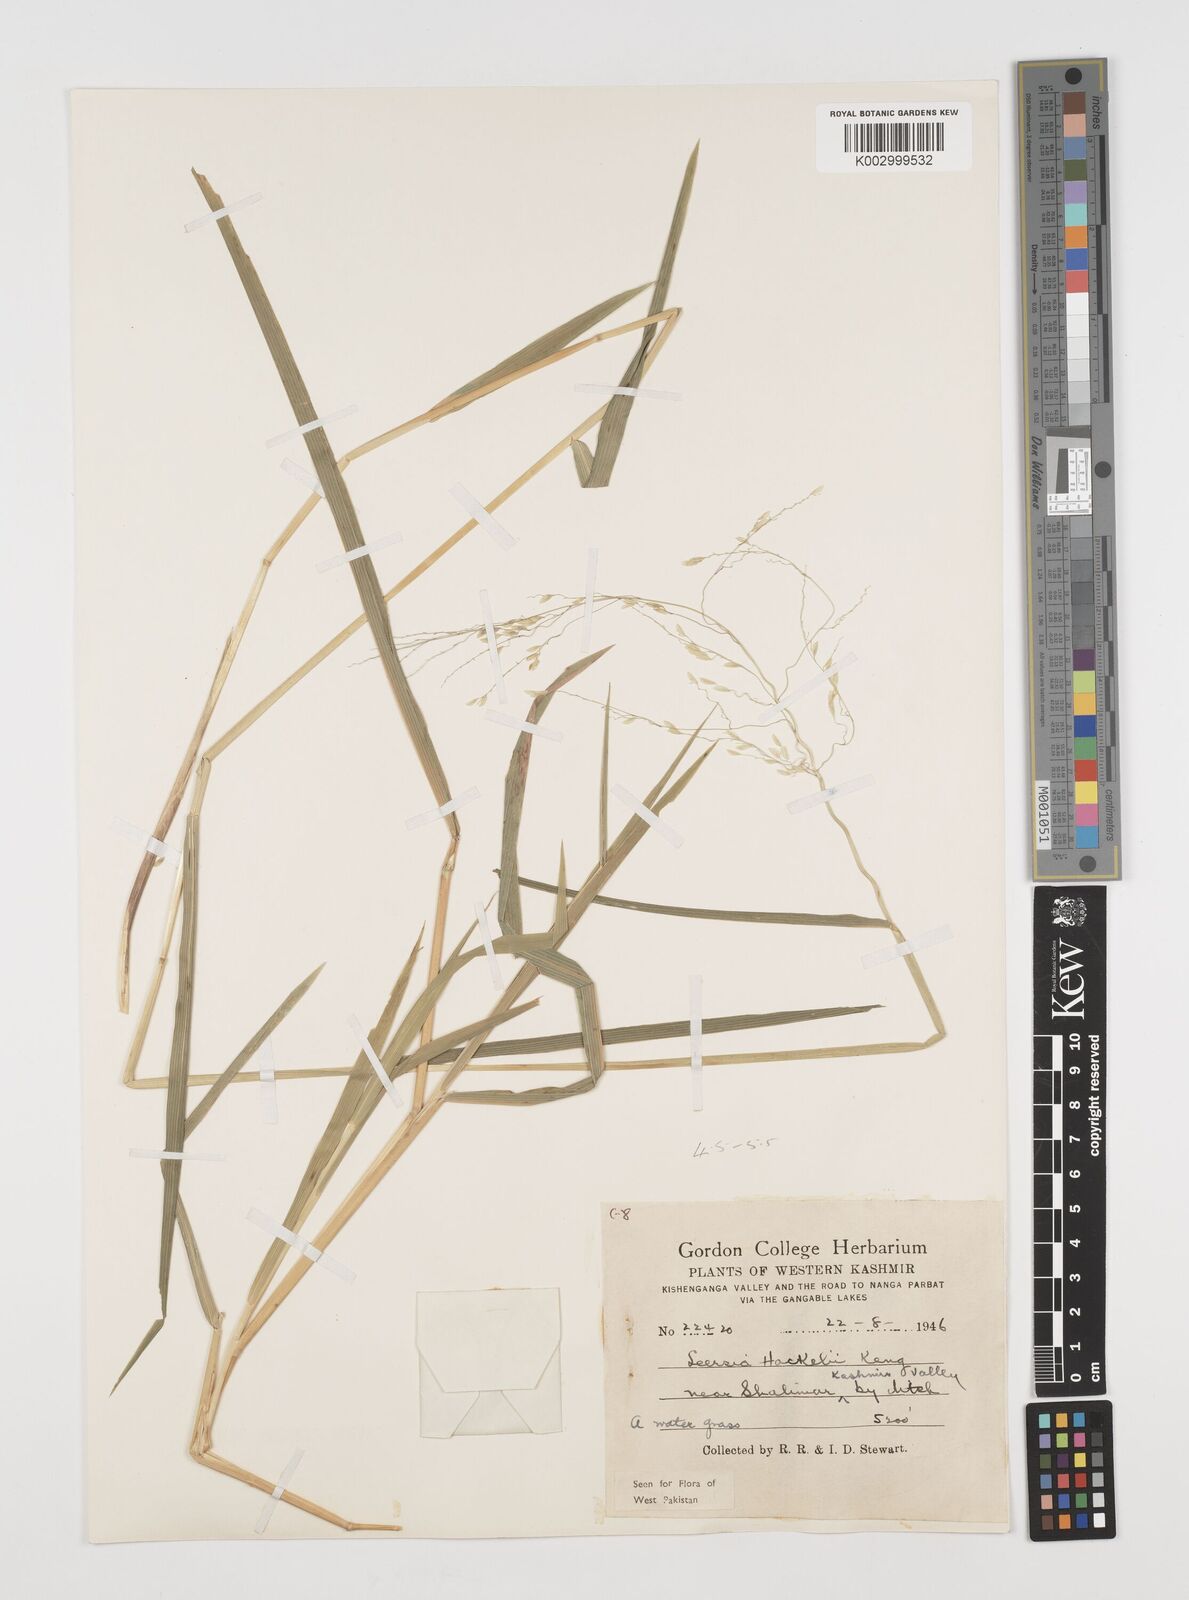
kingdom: Plantae
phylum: Tracheophyta
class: Liliopsida
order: Poales
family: Poaceae
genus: Leersia
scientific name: Leersia oryzoides
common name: Cut-grass
